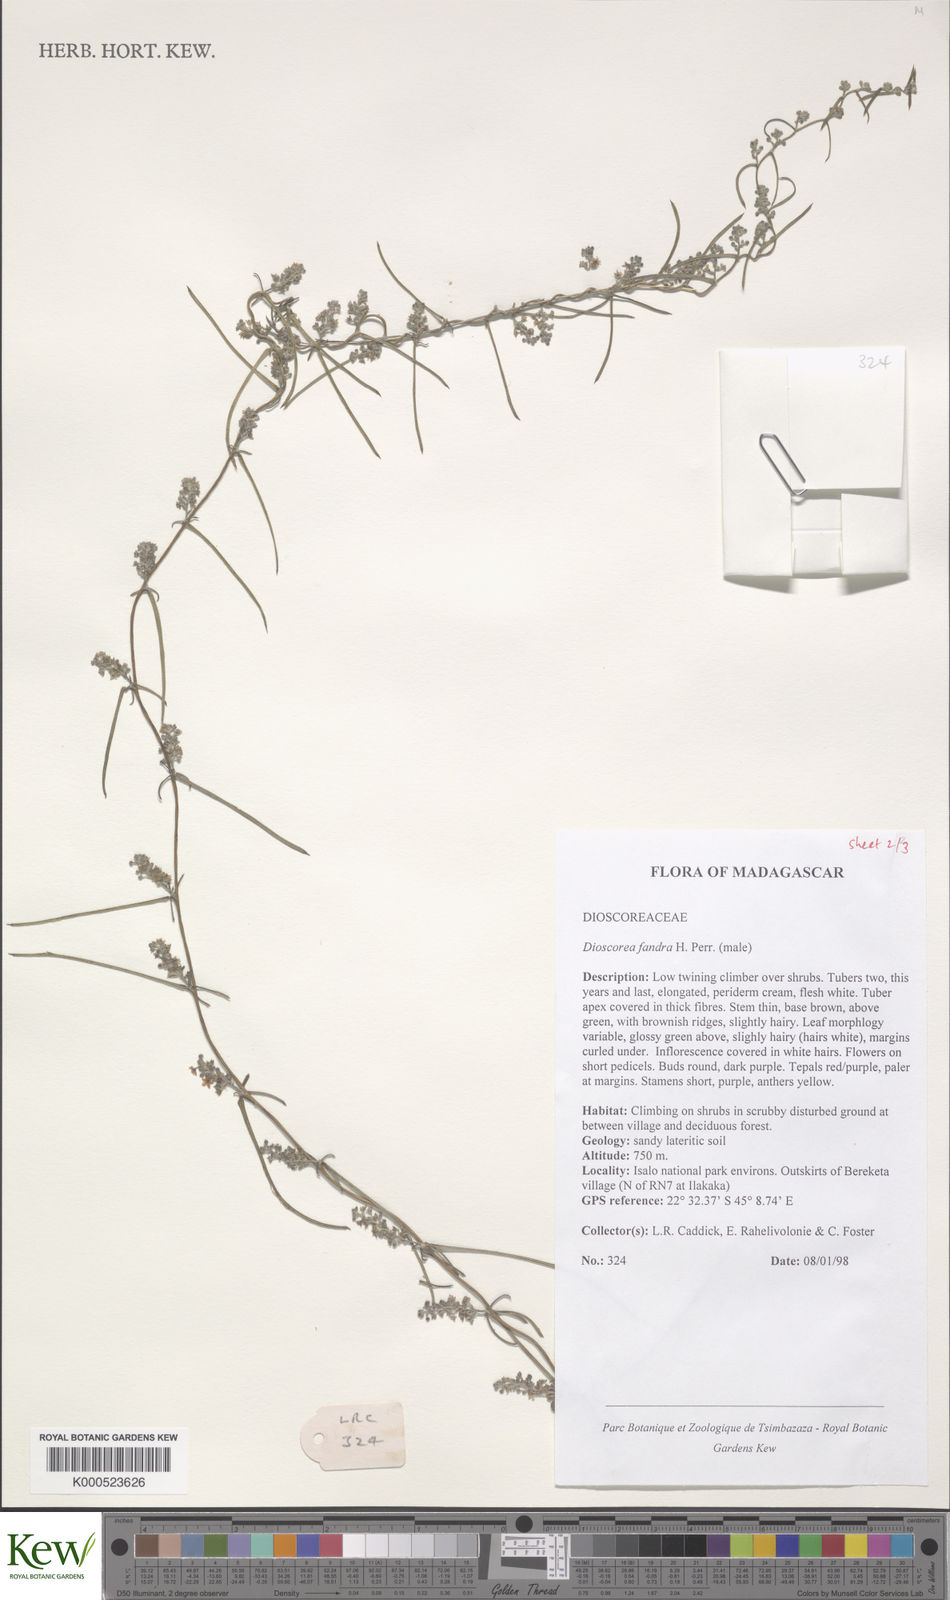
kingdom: Plantae
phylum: Tracheophyta
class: Liliopsida
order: Dioscoreales
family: Dioscoreaceae
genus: Dioscorea
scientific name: Dioscorea fandra
